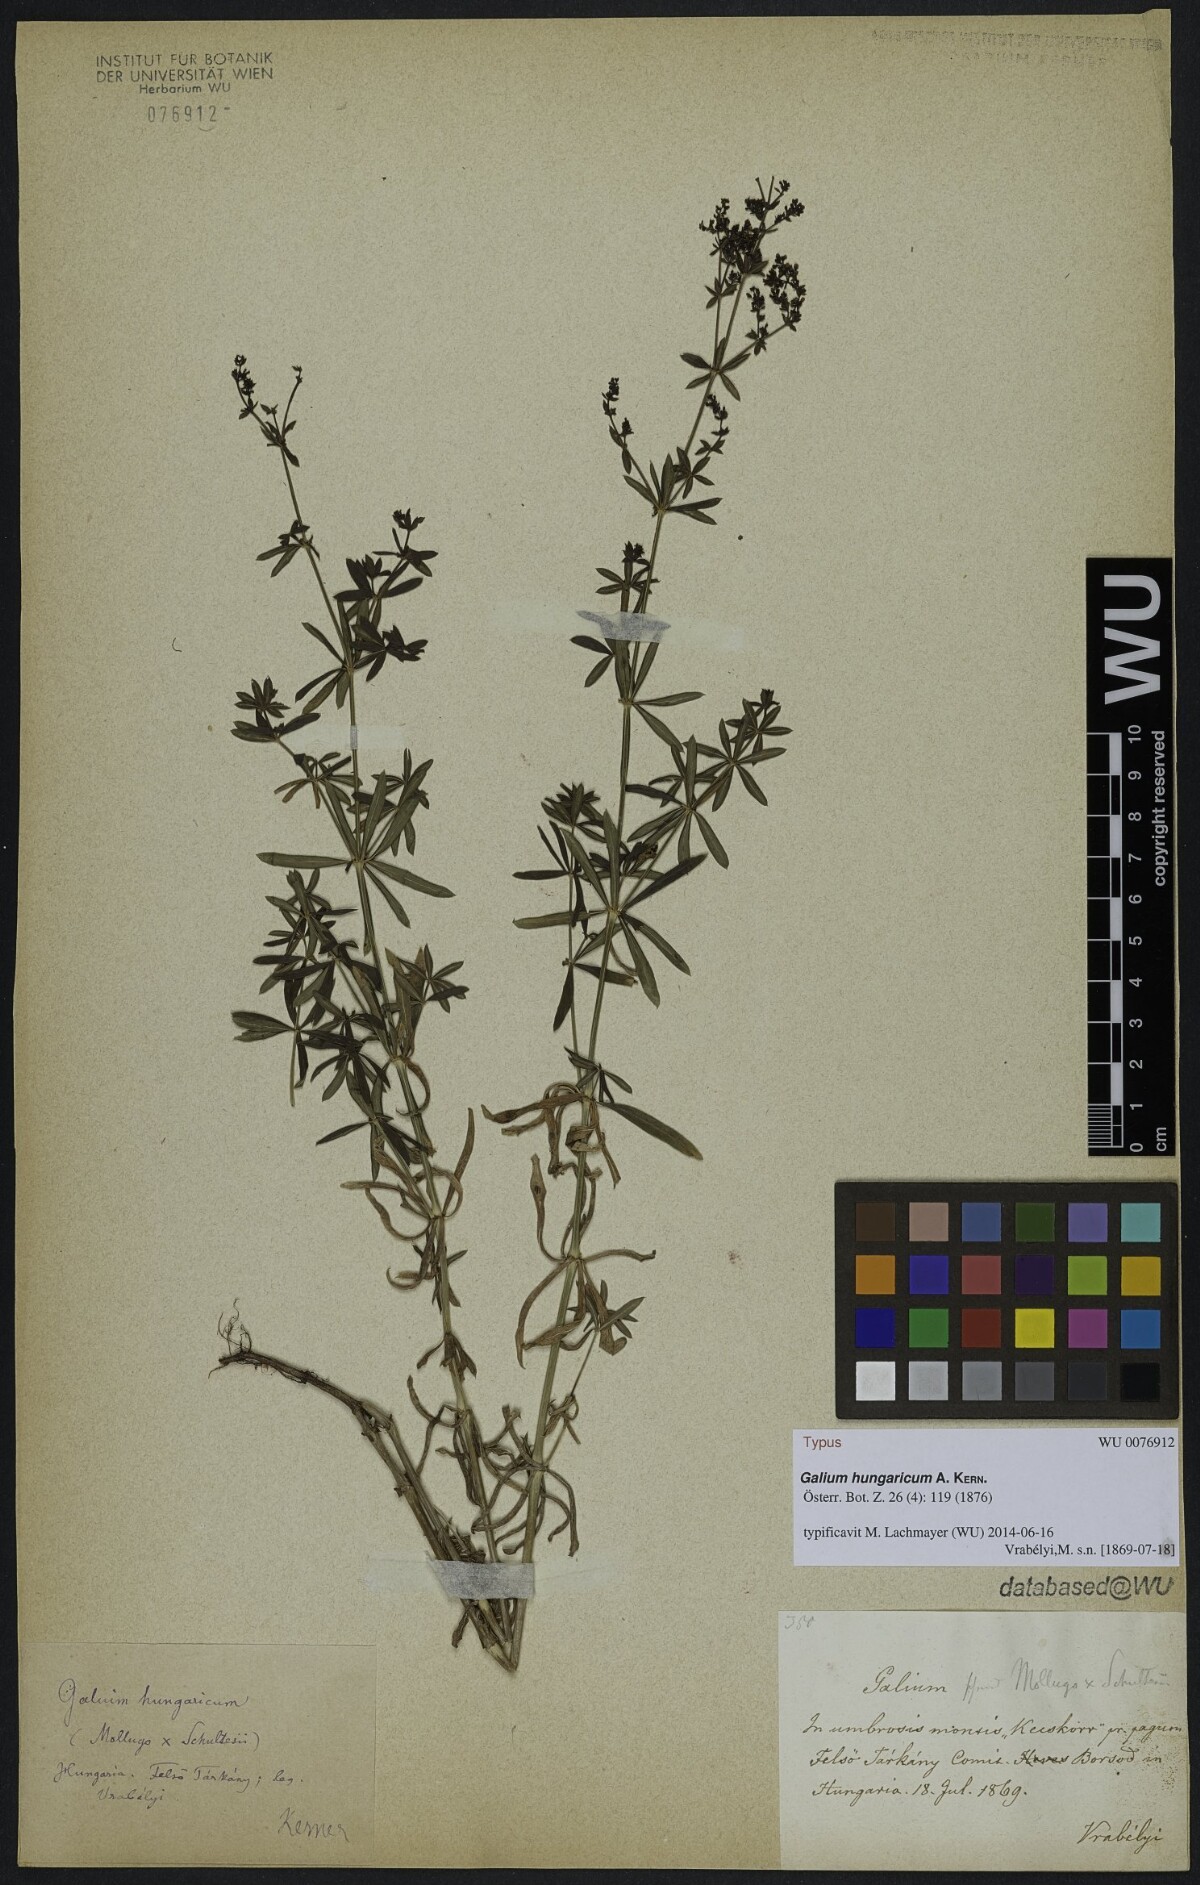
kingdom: Plantae
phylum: Tracheophyta
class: Magnoliopsida
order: Gentianales
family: Rubiaceae
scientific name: Rubiaceae
